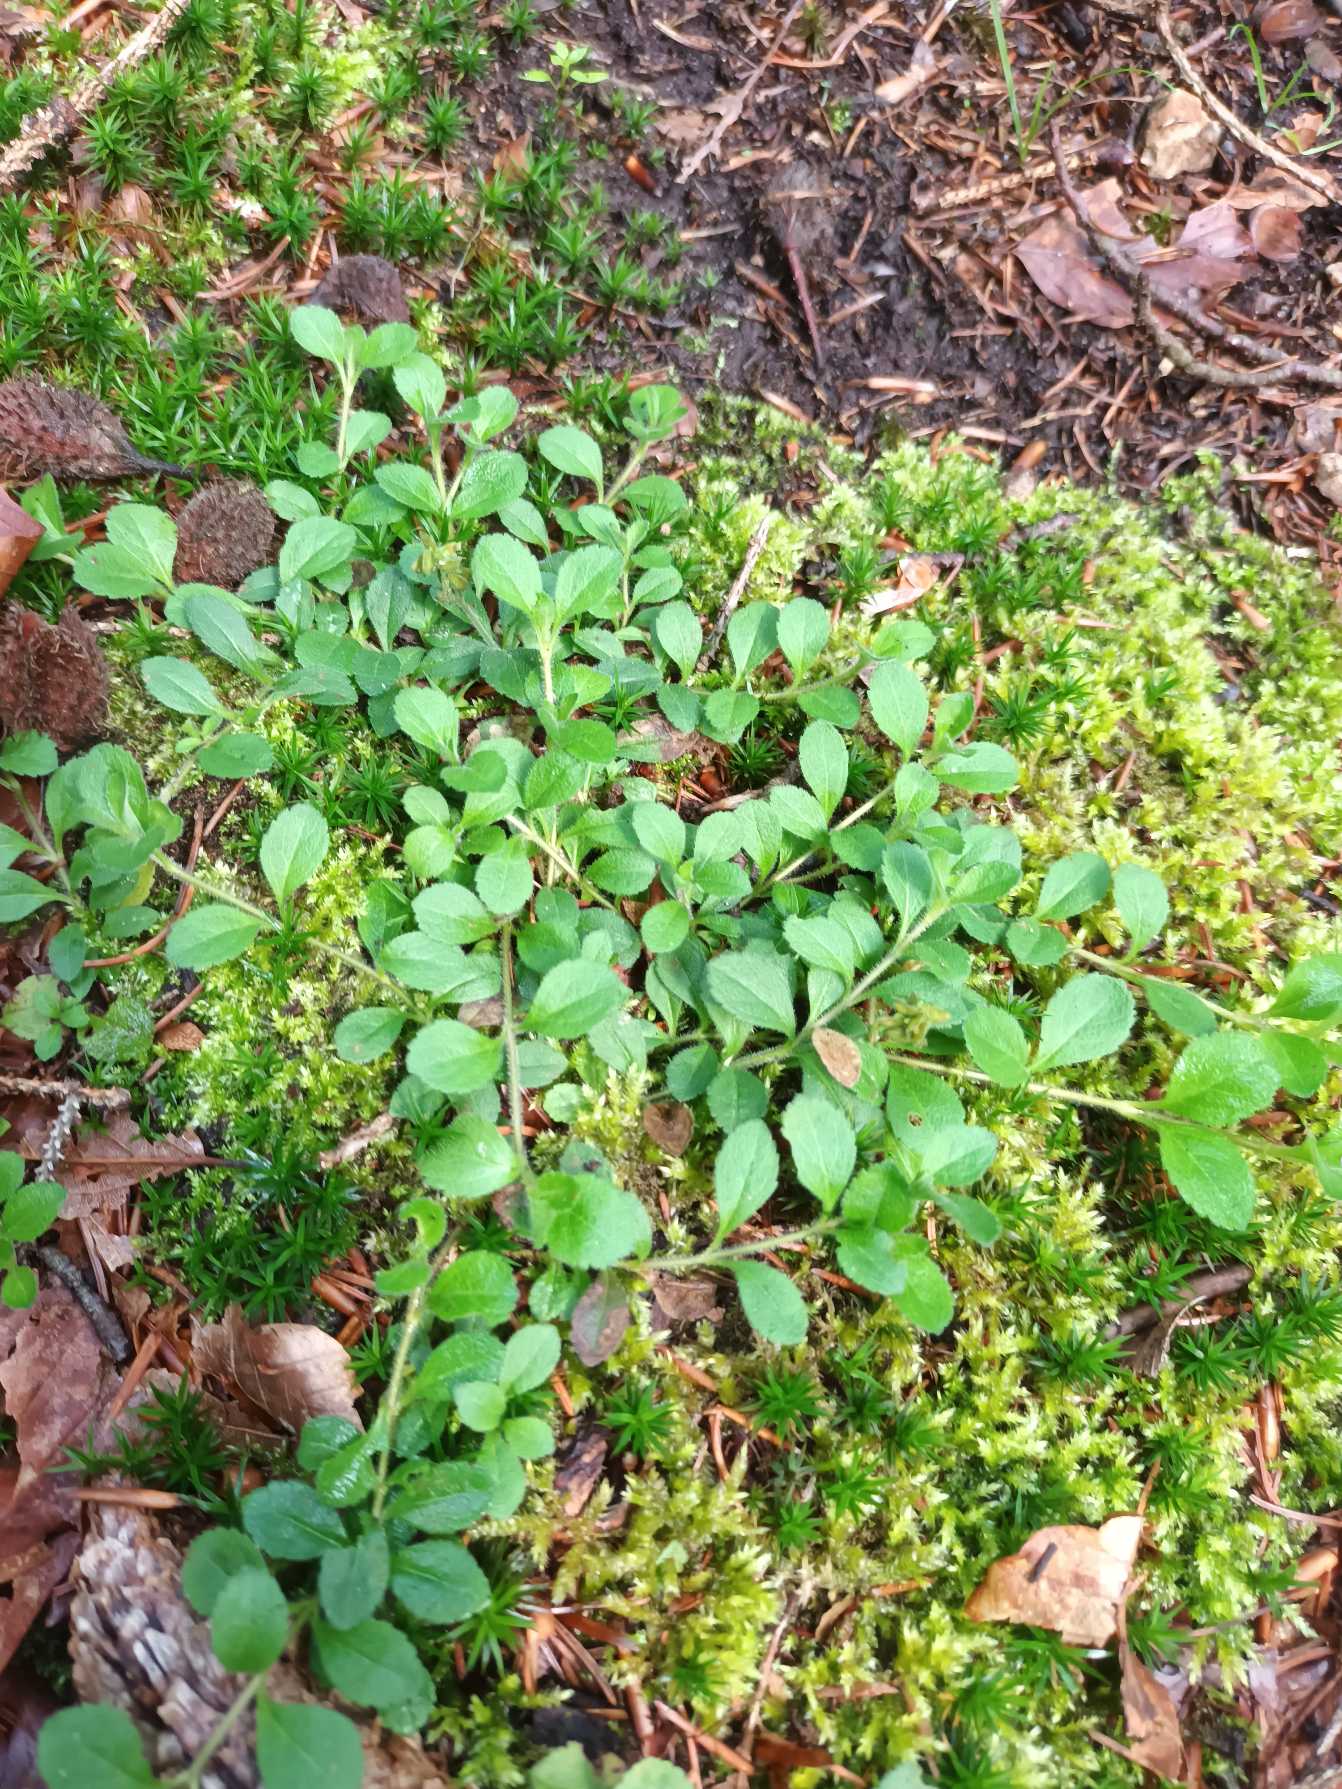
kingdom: Plantae
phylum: Tracheophyta
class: Magnoliopsida
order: Lamiales
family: Plantaginaceae
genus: Veronica
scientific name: Veronica officinalis
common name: Læge-ærenpris
